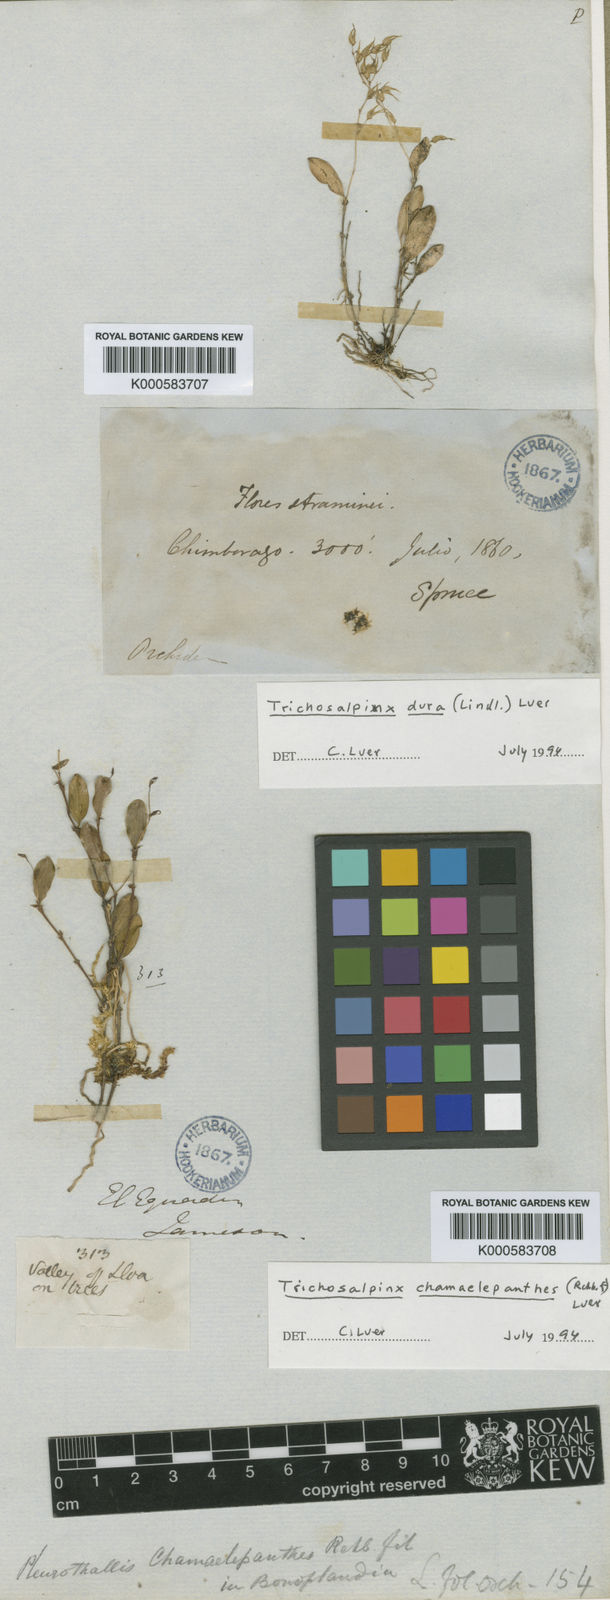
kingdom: Plantae
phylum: Tracheophyta
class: Liliopsida
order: Asparagales
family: Orchidaceae
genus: Gravendeelia
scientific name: Gravendeelia chamaelepanthes
